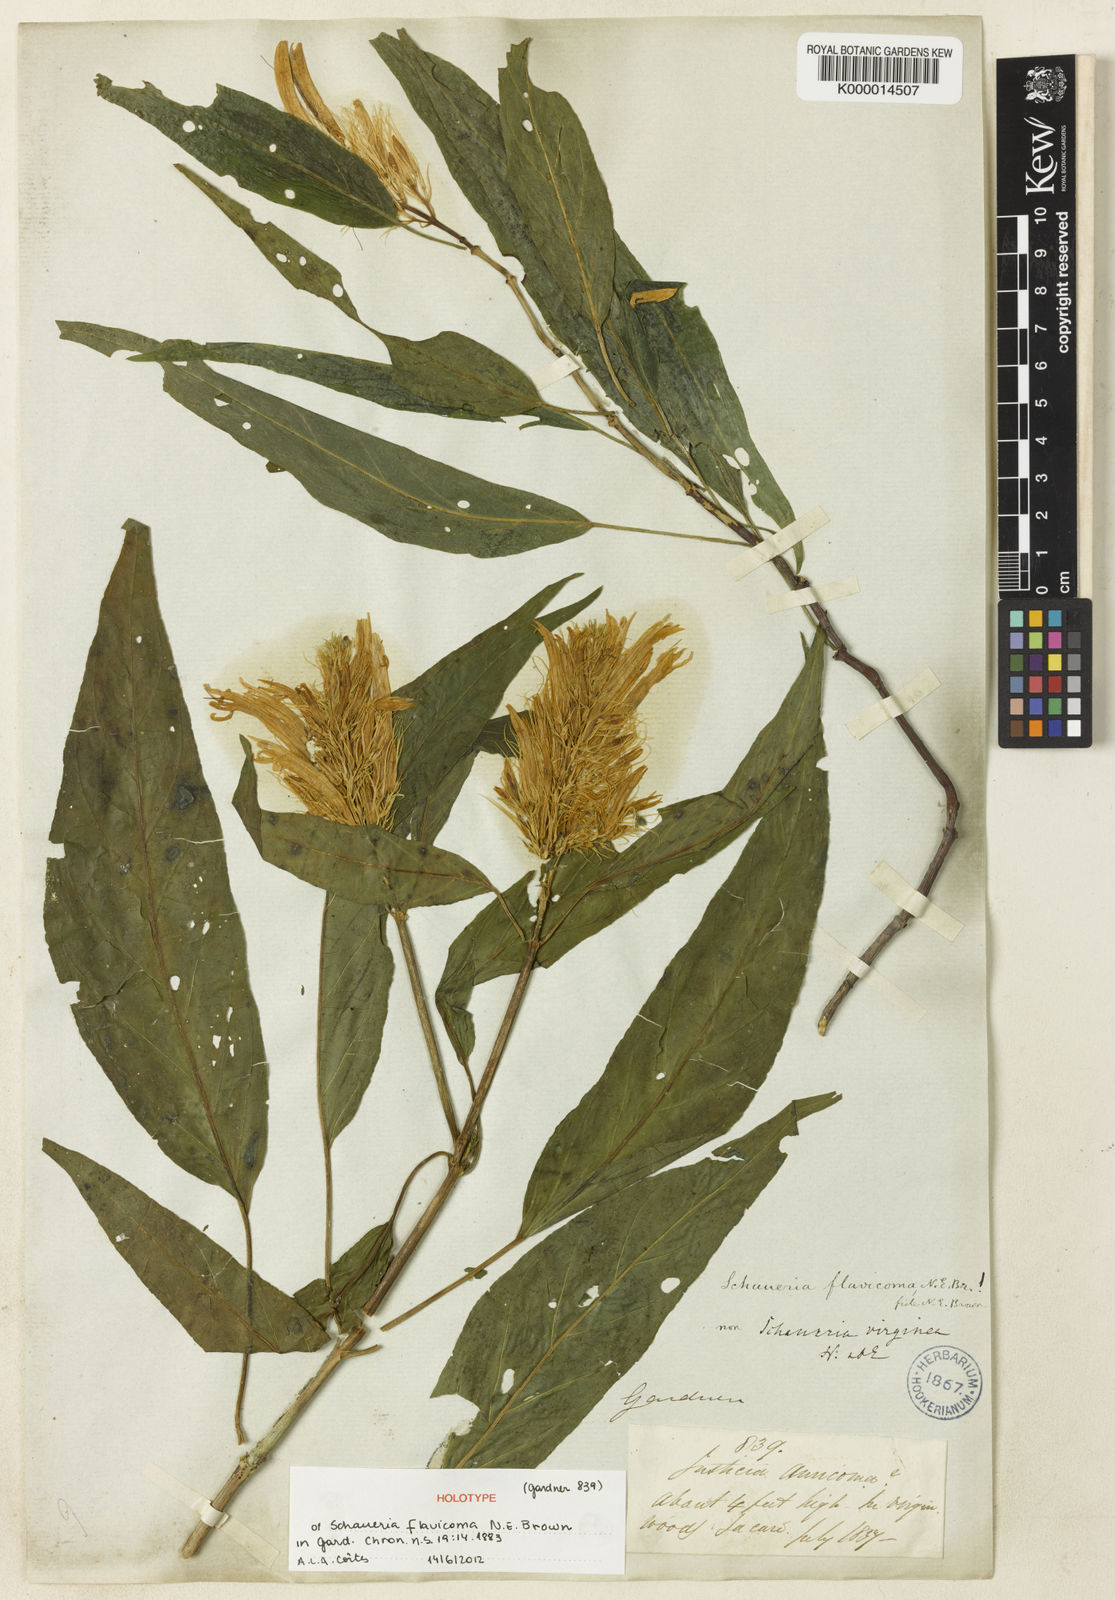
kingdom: Plantae
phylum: Tracheophyta
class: Magnoliopsida
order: Lamiales
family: Acanthaceae
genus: Schaueria
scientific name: Schaueria
